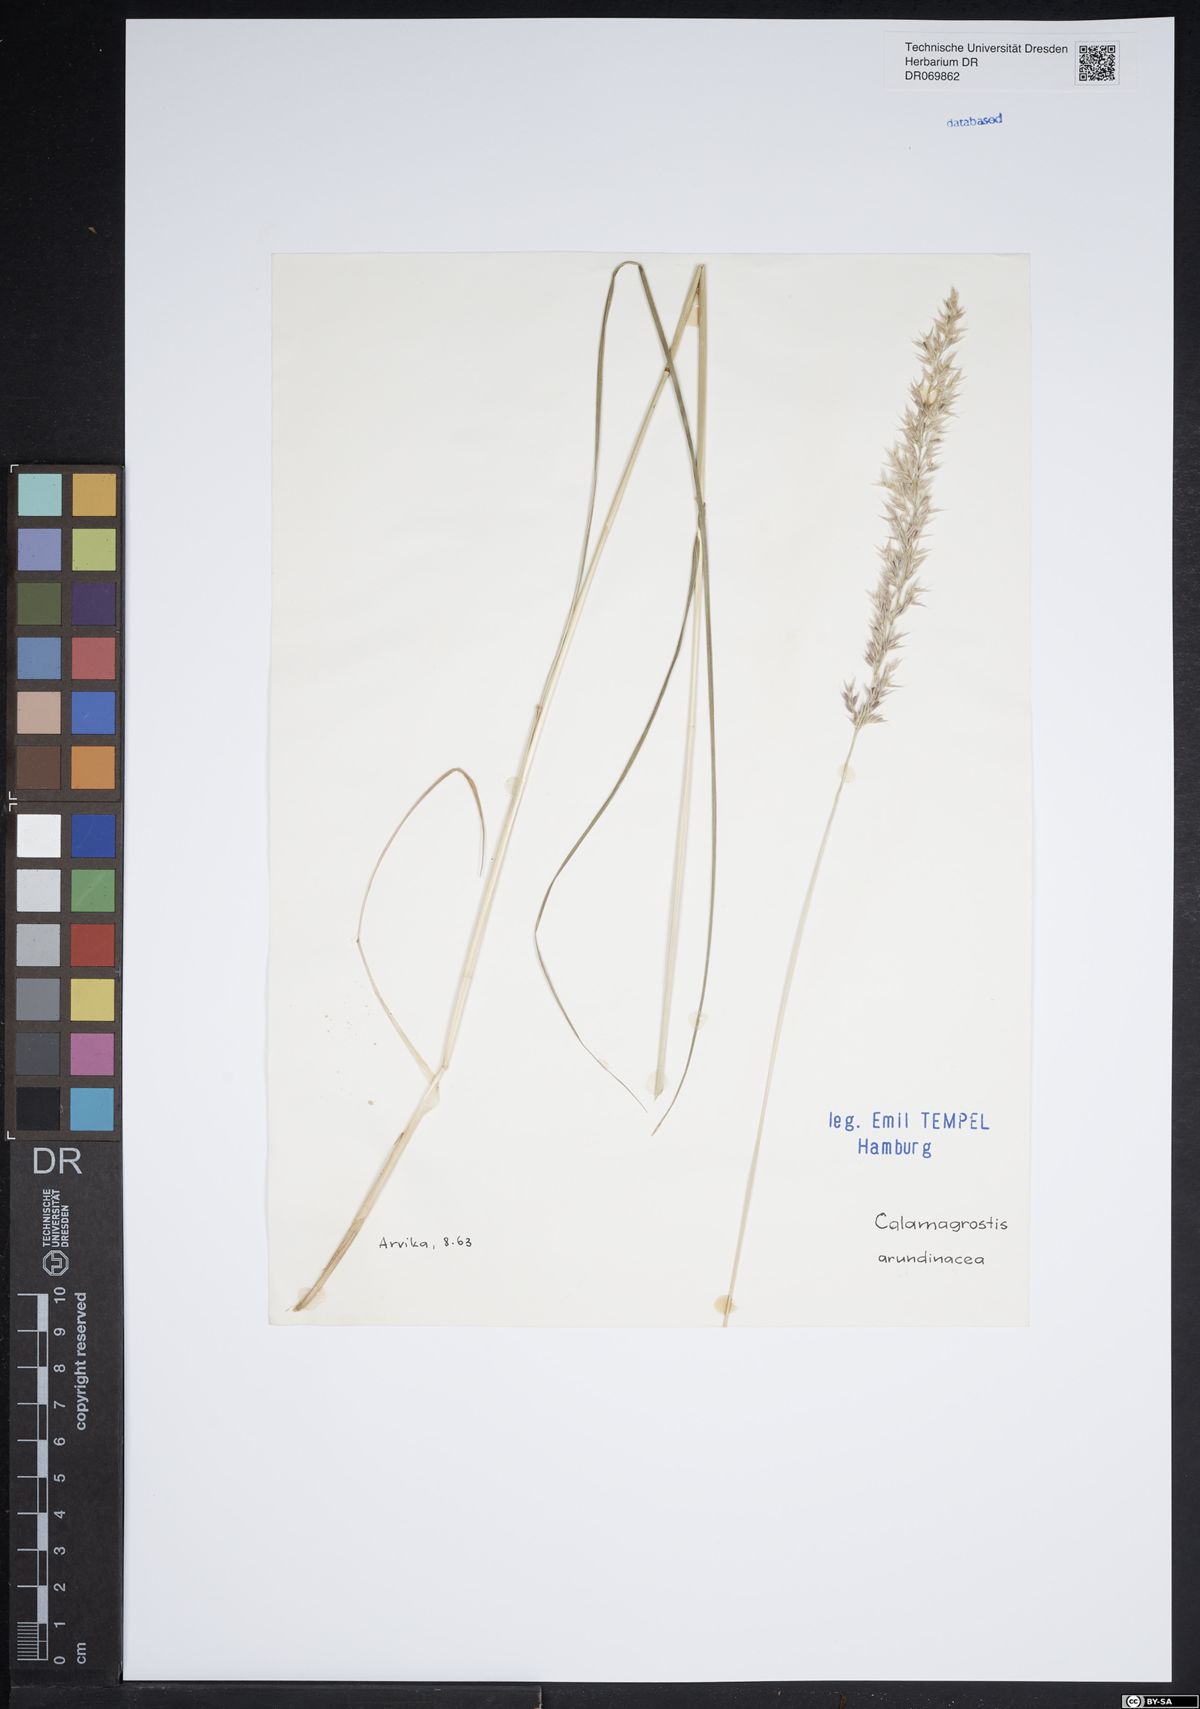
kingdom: Plantae
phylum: Tracheophyta
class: Liliopsida
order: Poales
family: Poaceae
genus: Calamagrostis
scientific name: Calamagrostis arundinacea
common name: Metskastik
